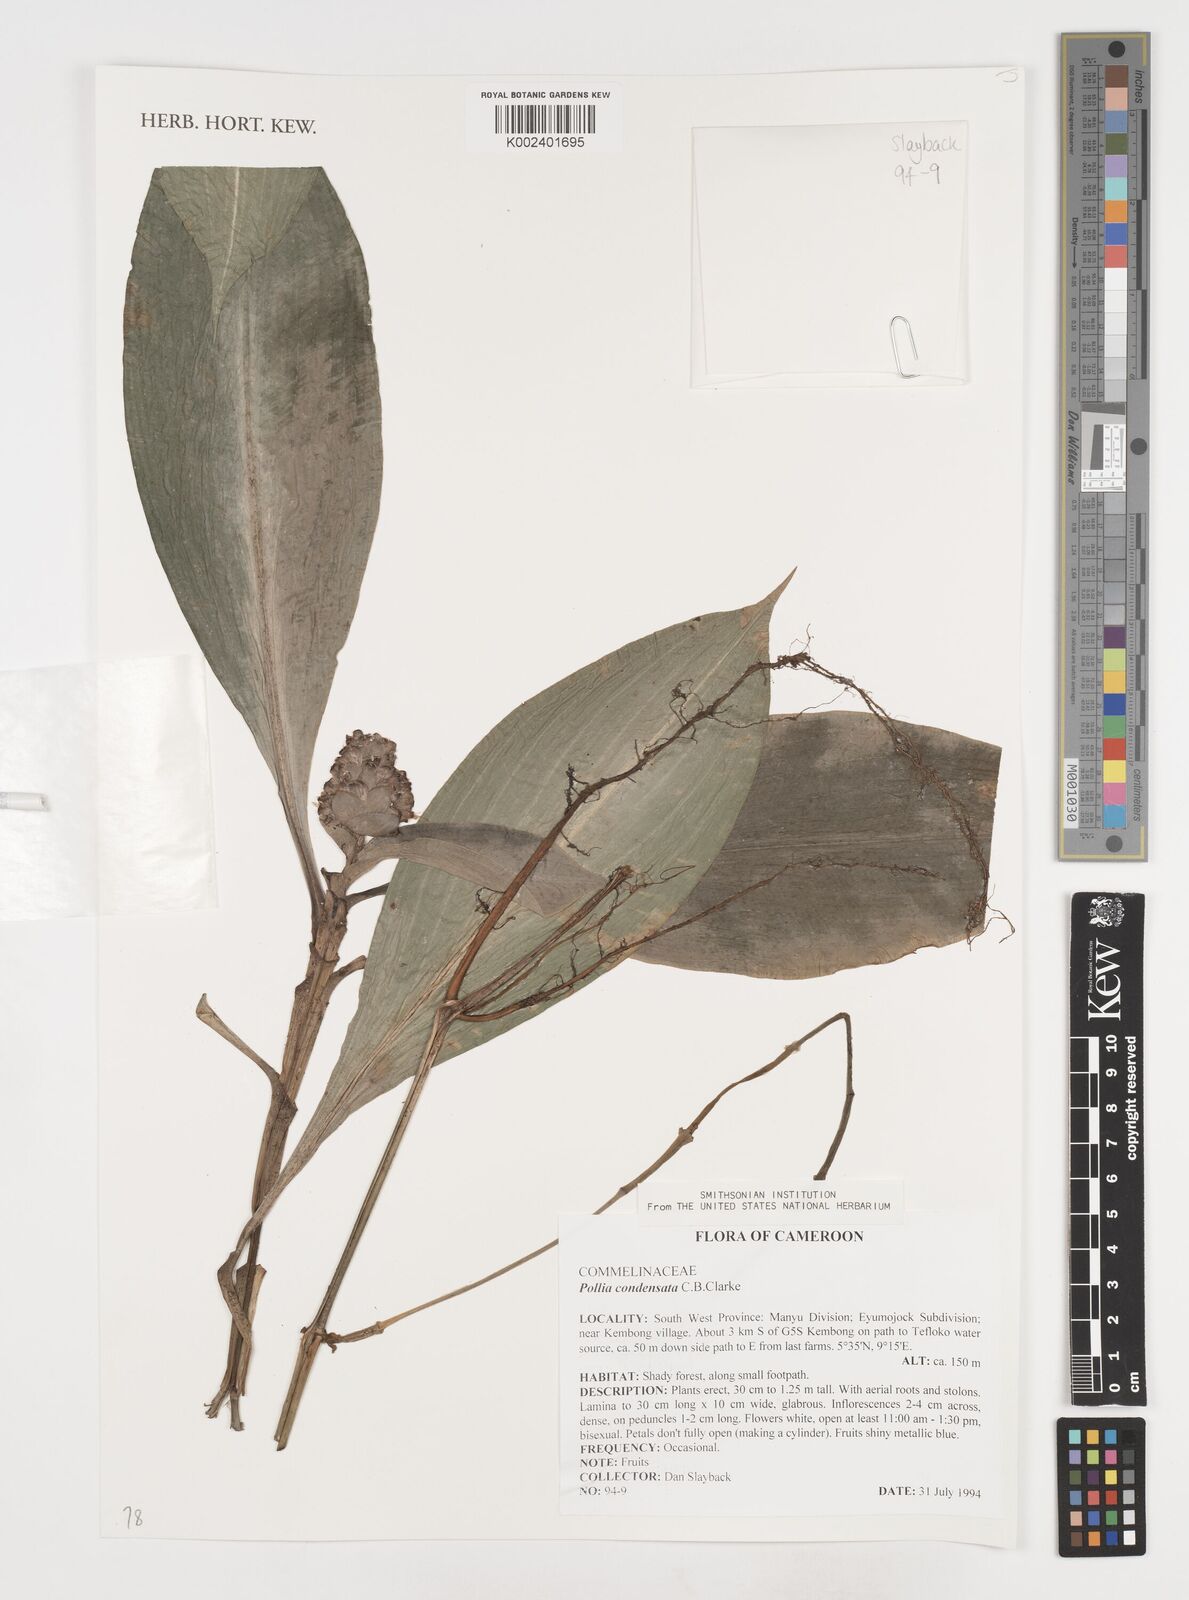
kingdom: Plantae
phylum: Tracheophyta
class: Liliopsida
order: Commelinales
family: Commelinaceae
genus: Pollia
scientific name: Pollia condensata
